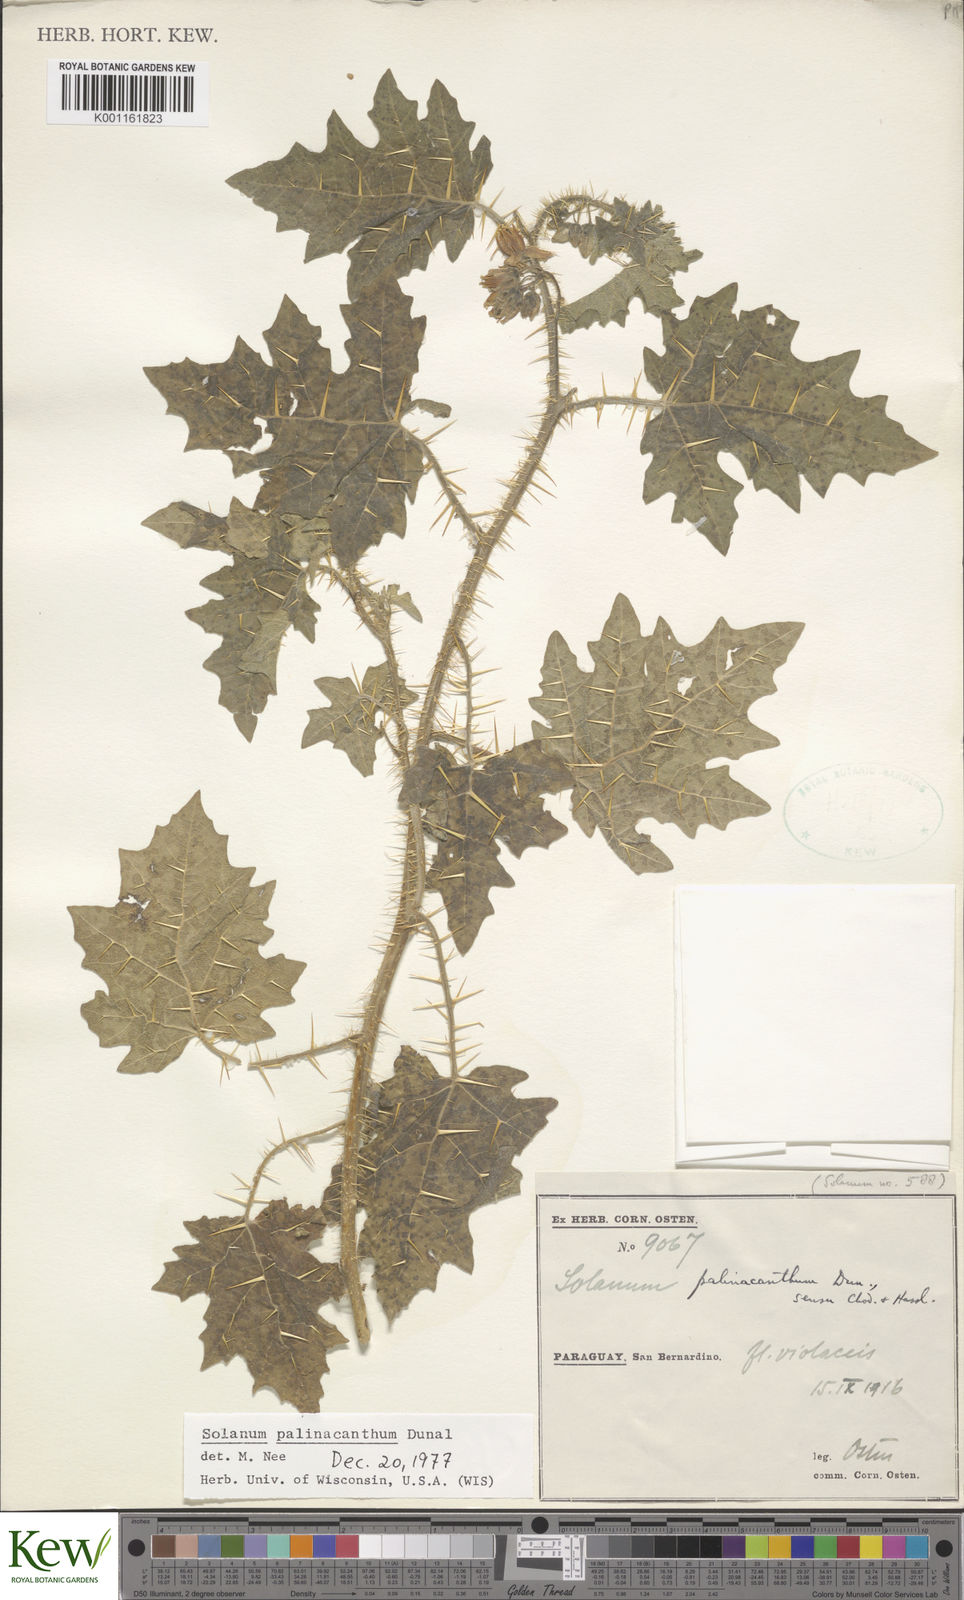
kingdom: Plantae
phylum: Tracheophyta
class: Magnoliopsida
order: Solanales
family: Solanaceae
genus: Solanum
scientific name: Solanum palinacanthum
